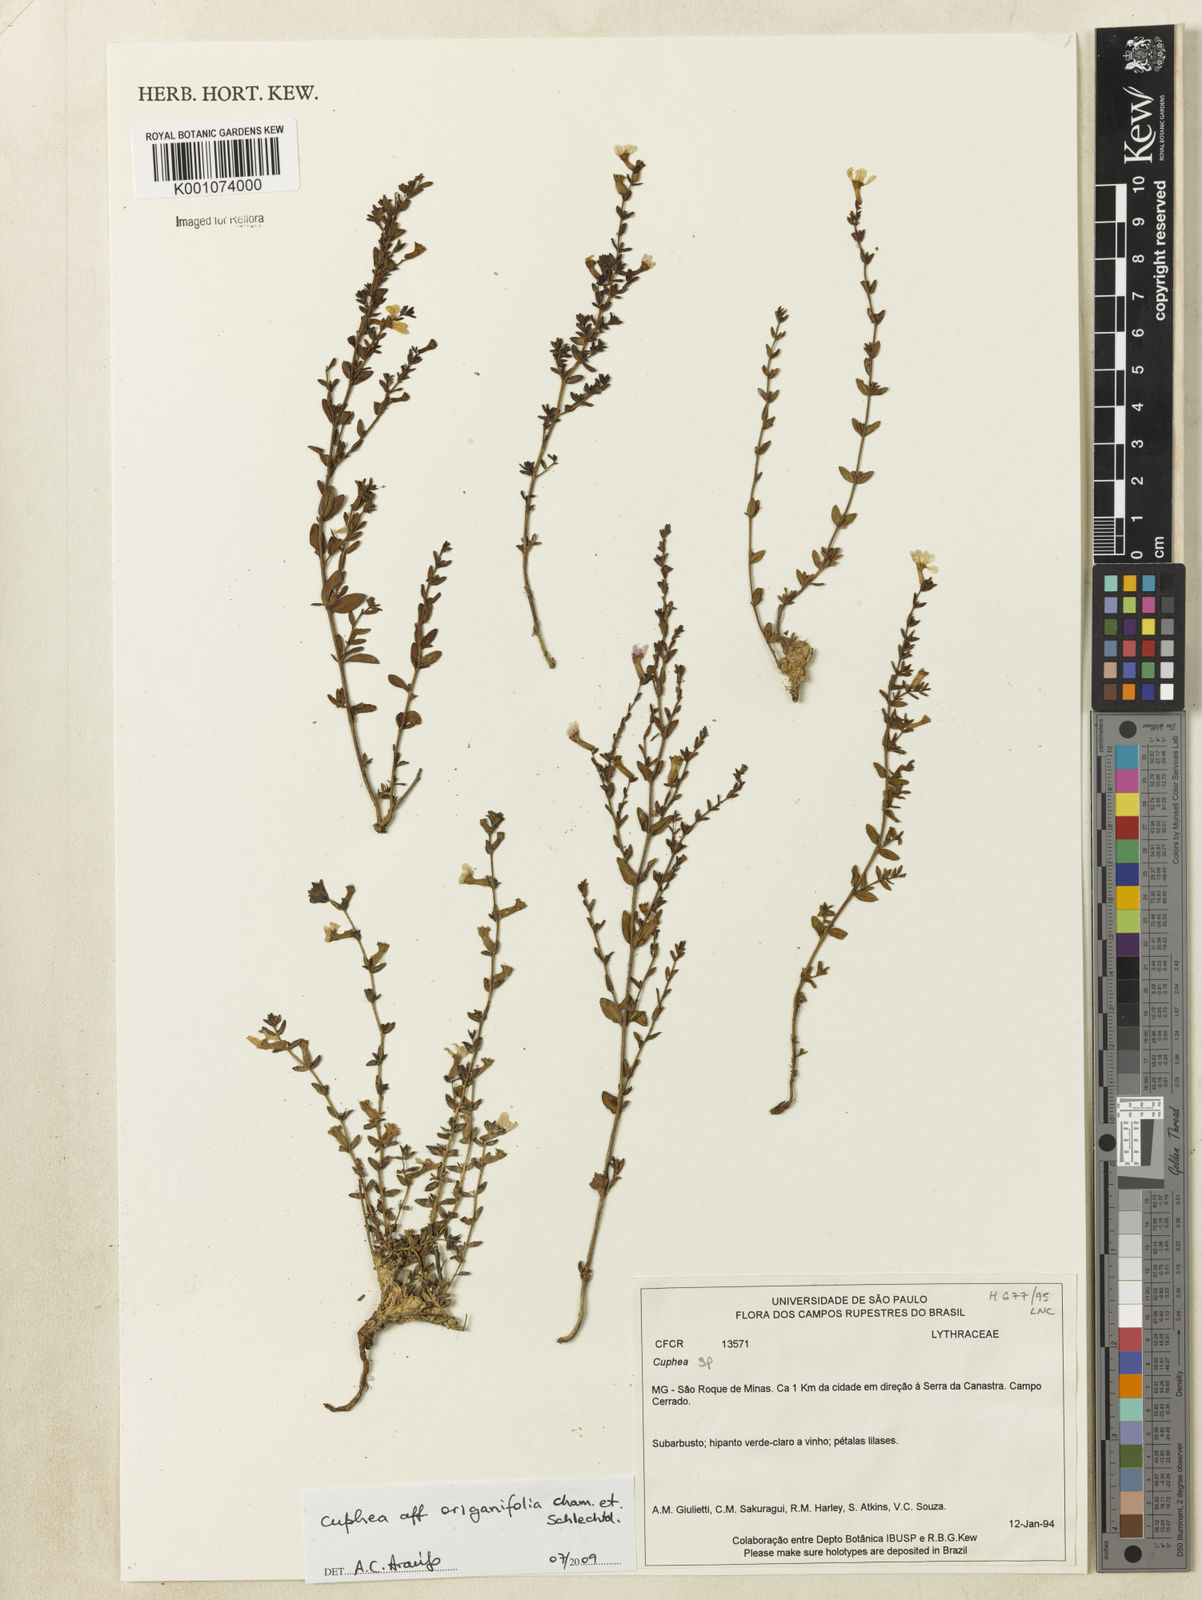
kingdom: Plantae
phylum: Tracheophyta
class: Magnoliopsida
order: Myrtales
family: Lythraceae
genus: Cuphea
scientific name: Cuphea racemosa
